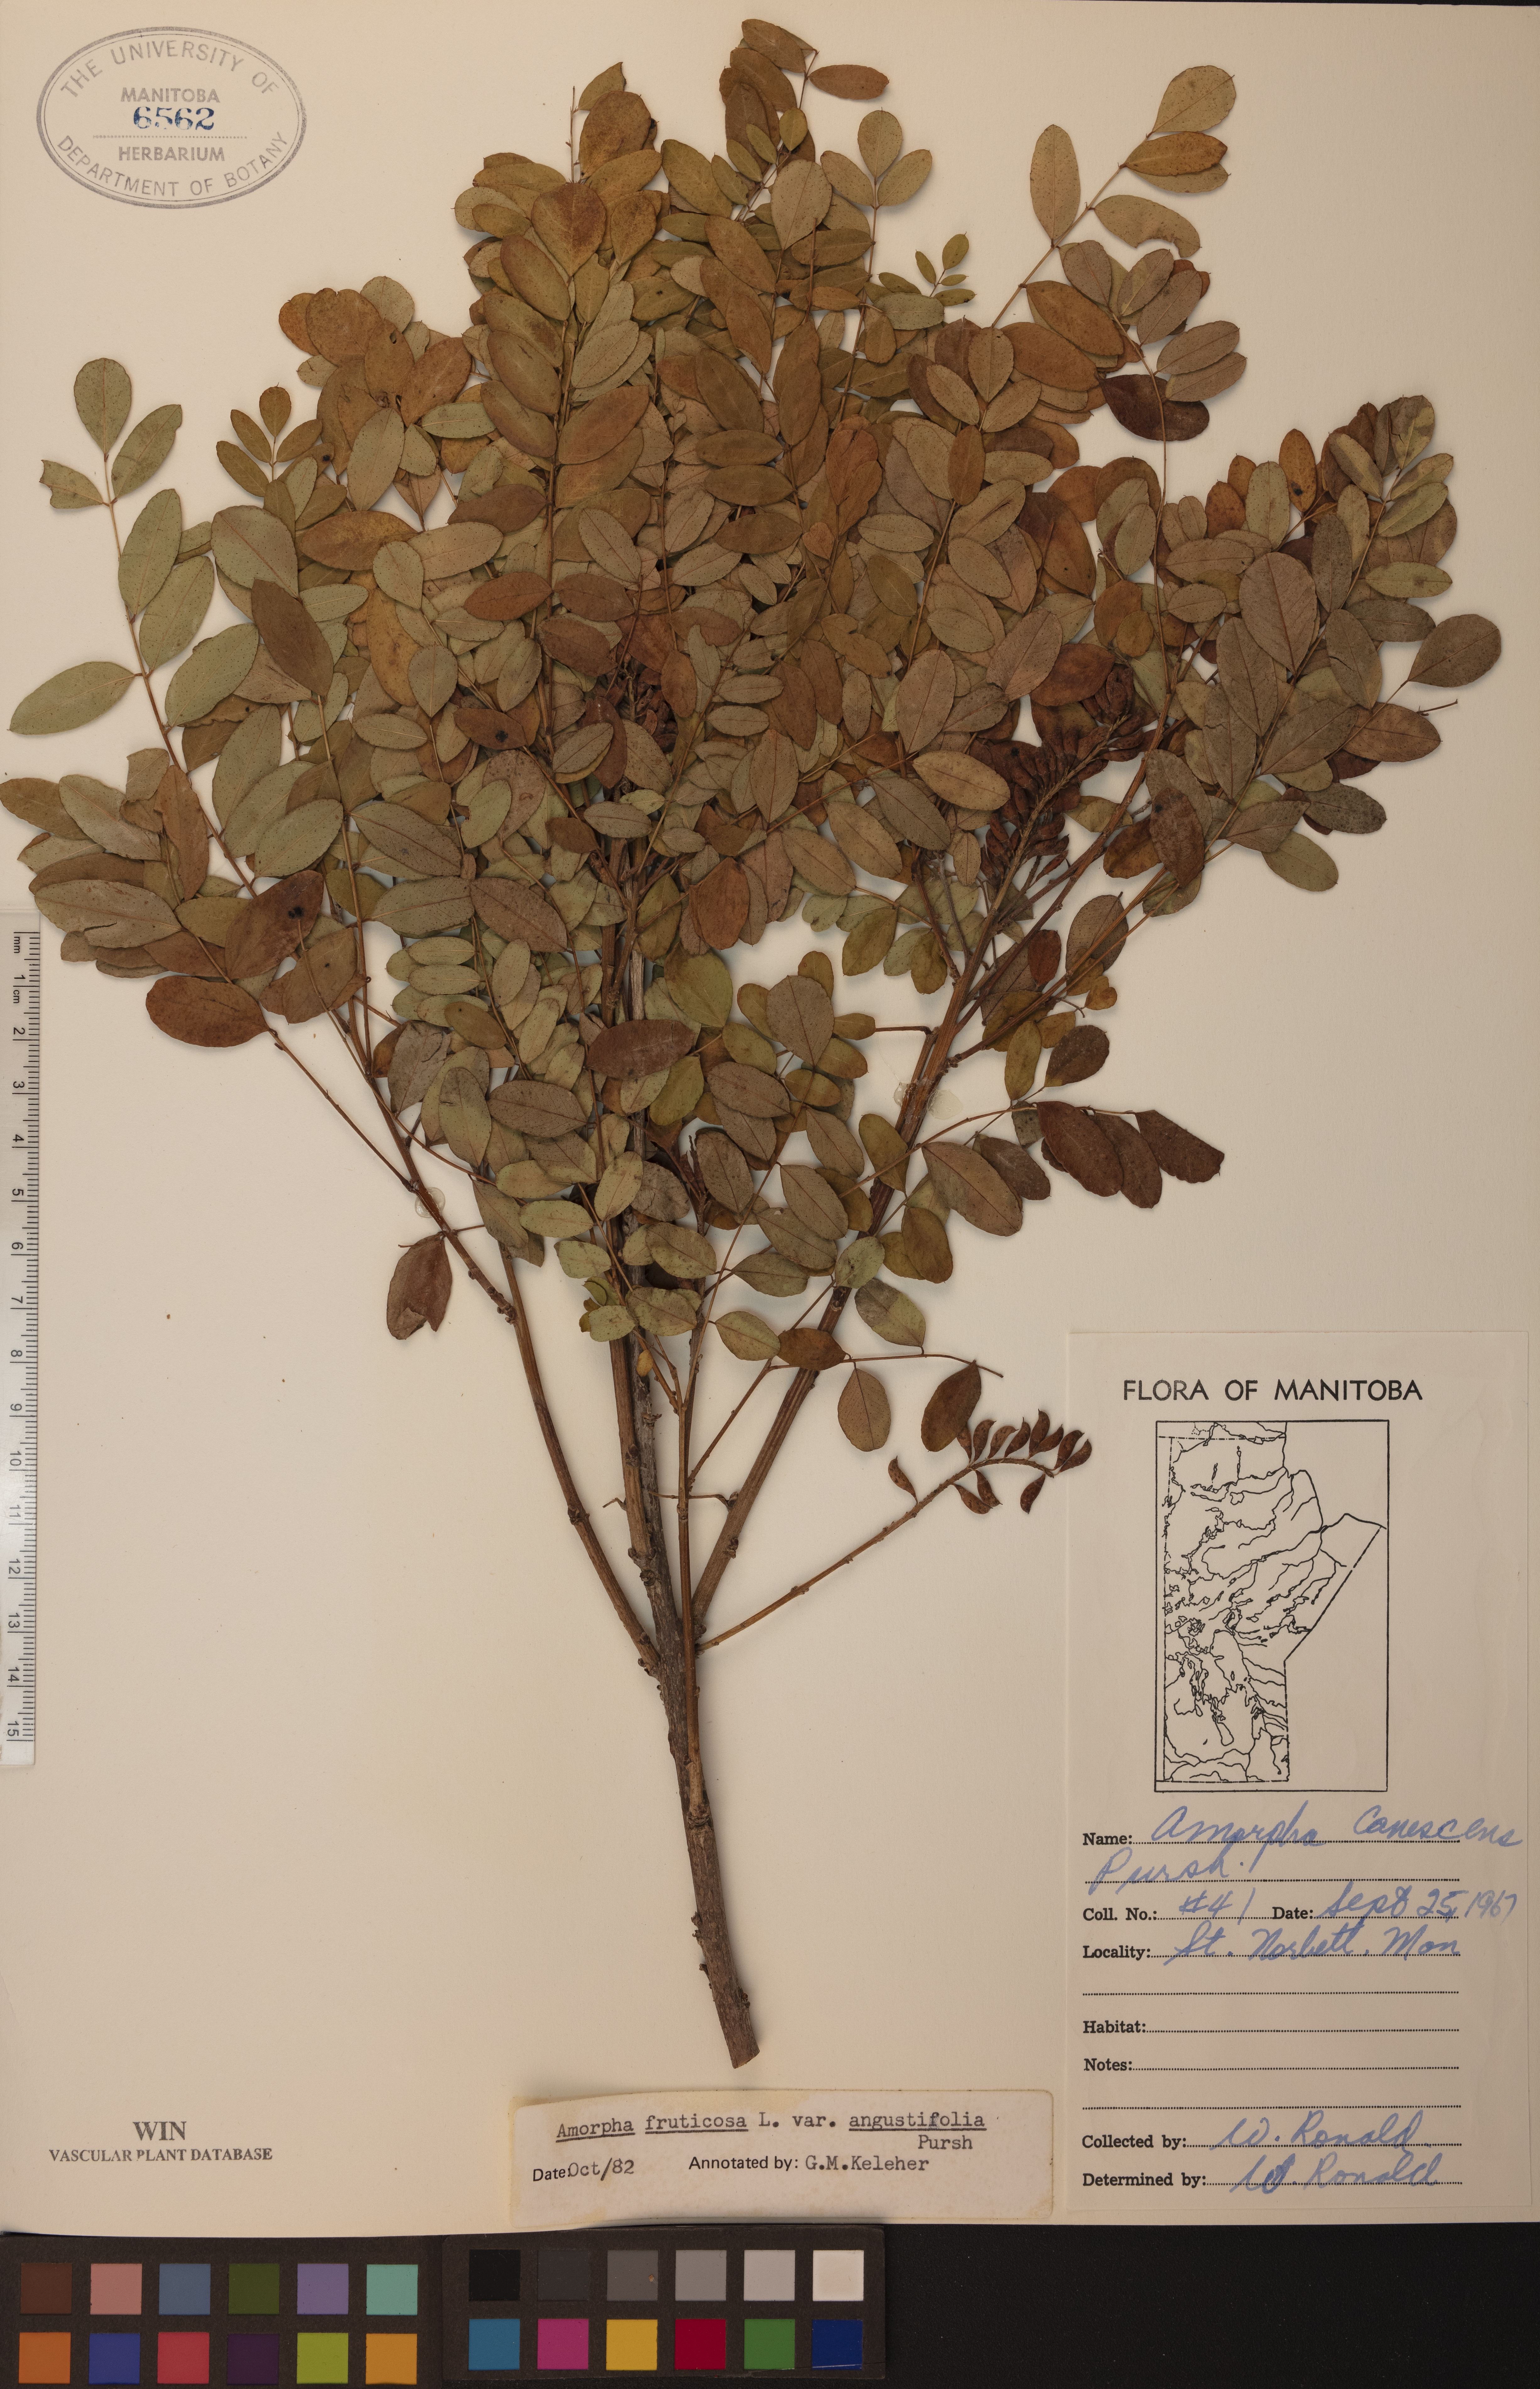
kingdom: Plantae
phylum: Tracheophyta
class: Magnoliopsida
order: Fabales
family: Fabaceae
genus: Amorpha
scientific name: Amorpha fruticosa
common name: False indigo
